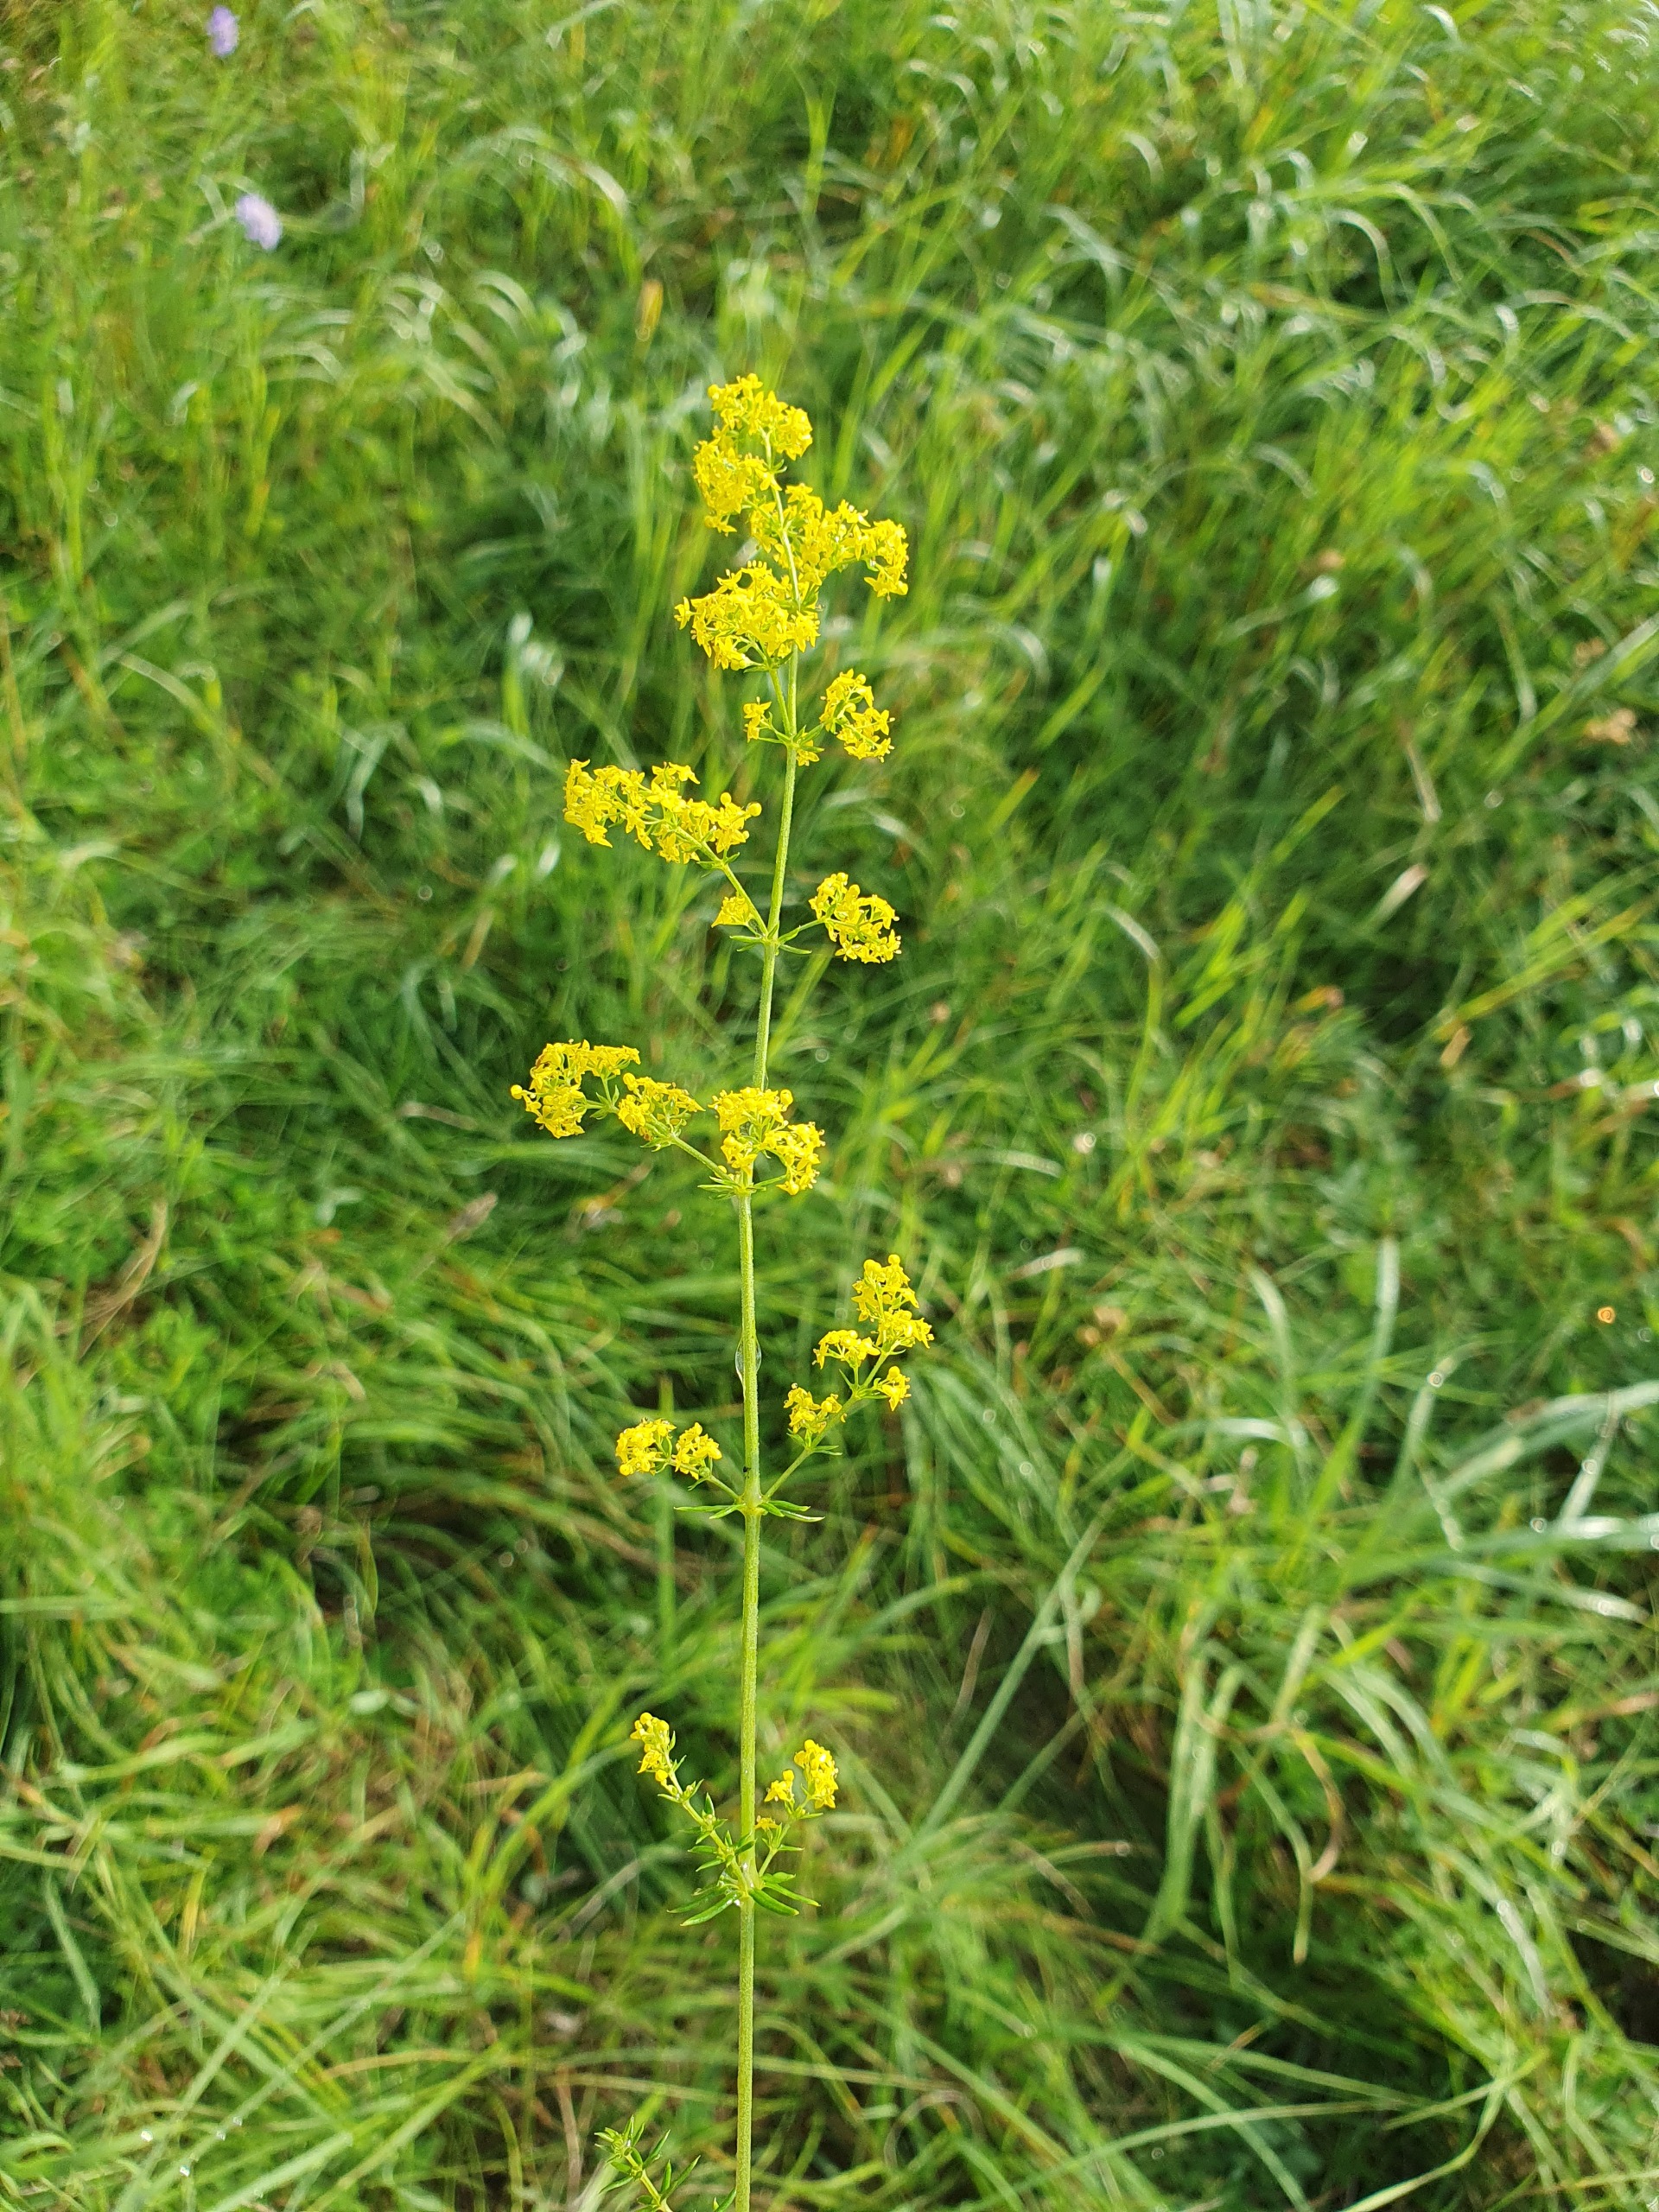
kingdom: Plantae
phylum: Tracheophyta
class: Magnoliopsida
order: Gentianales
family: Rubiaceae
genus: Galium
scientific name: Galium verum
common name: Gul snerre
